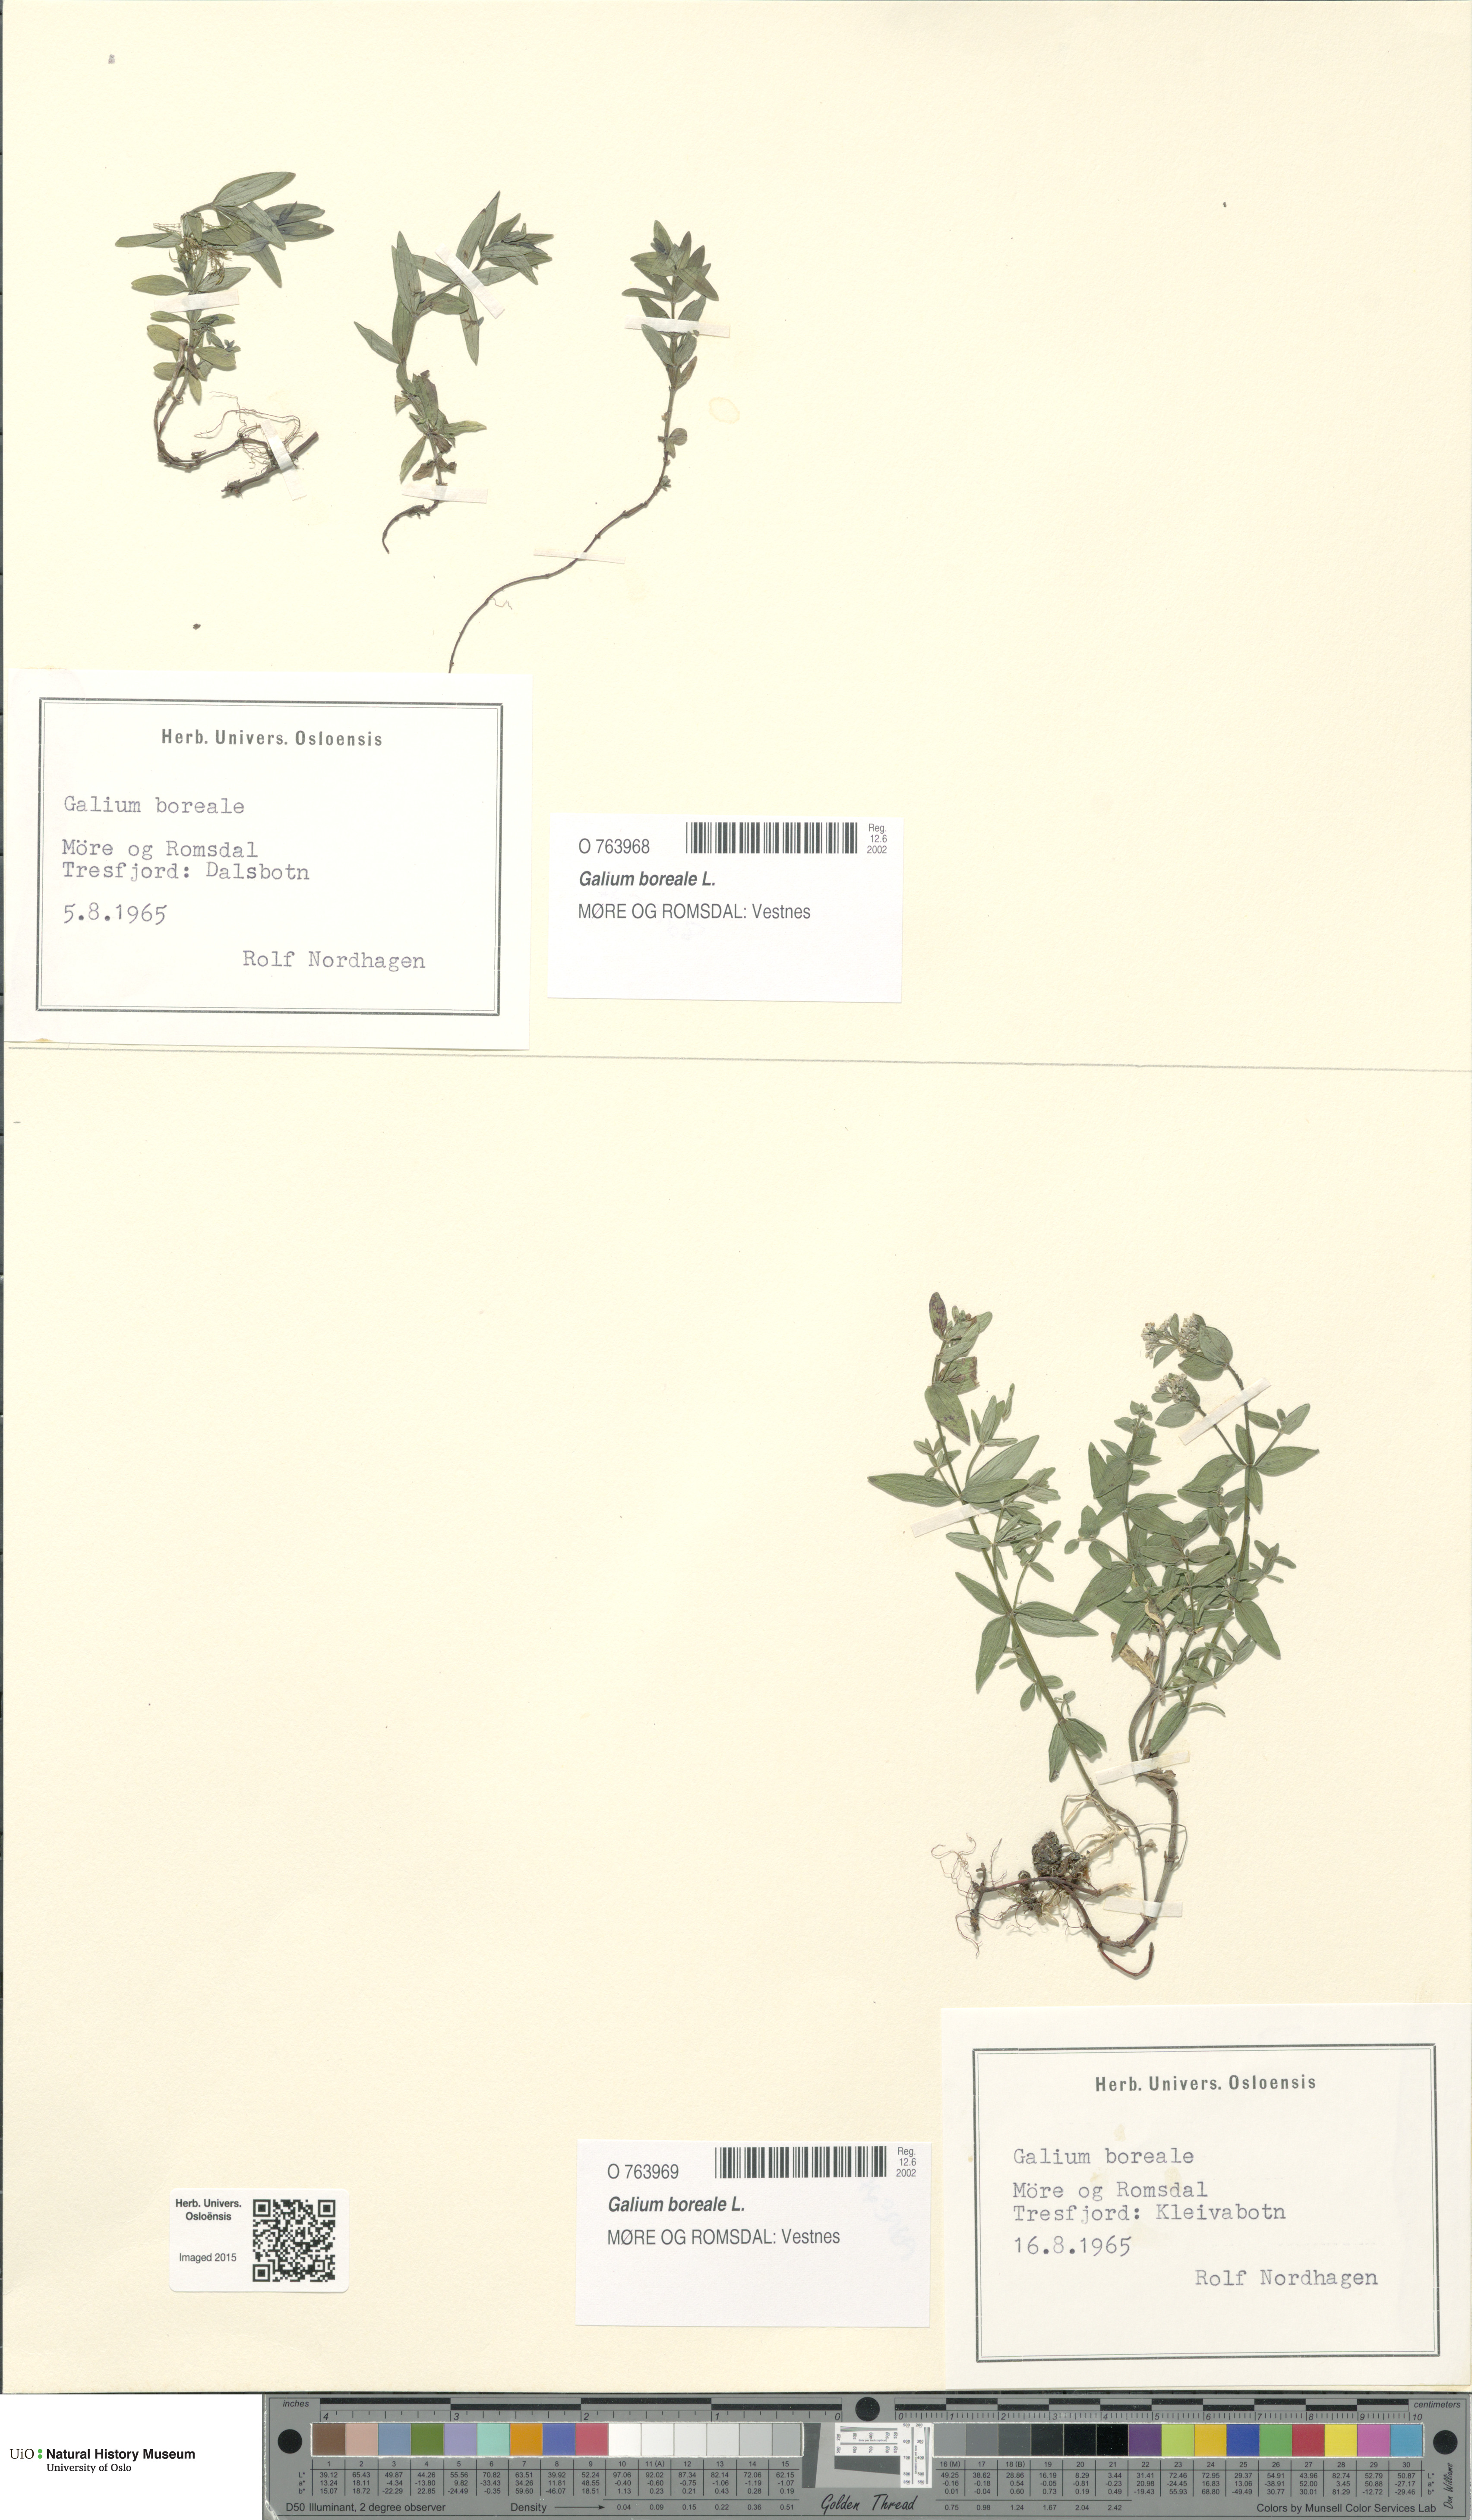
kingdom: Plantae
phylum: Tracheophyta
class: Magnoliopsida
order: Gentianales
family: Rubiaceae
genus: Galium
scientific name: Galium boreale
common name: Northern bedstraw
